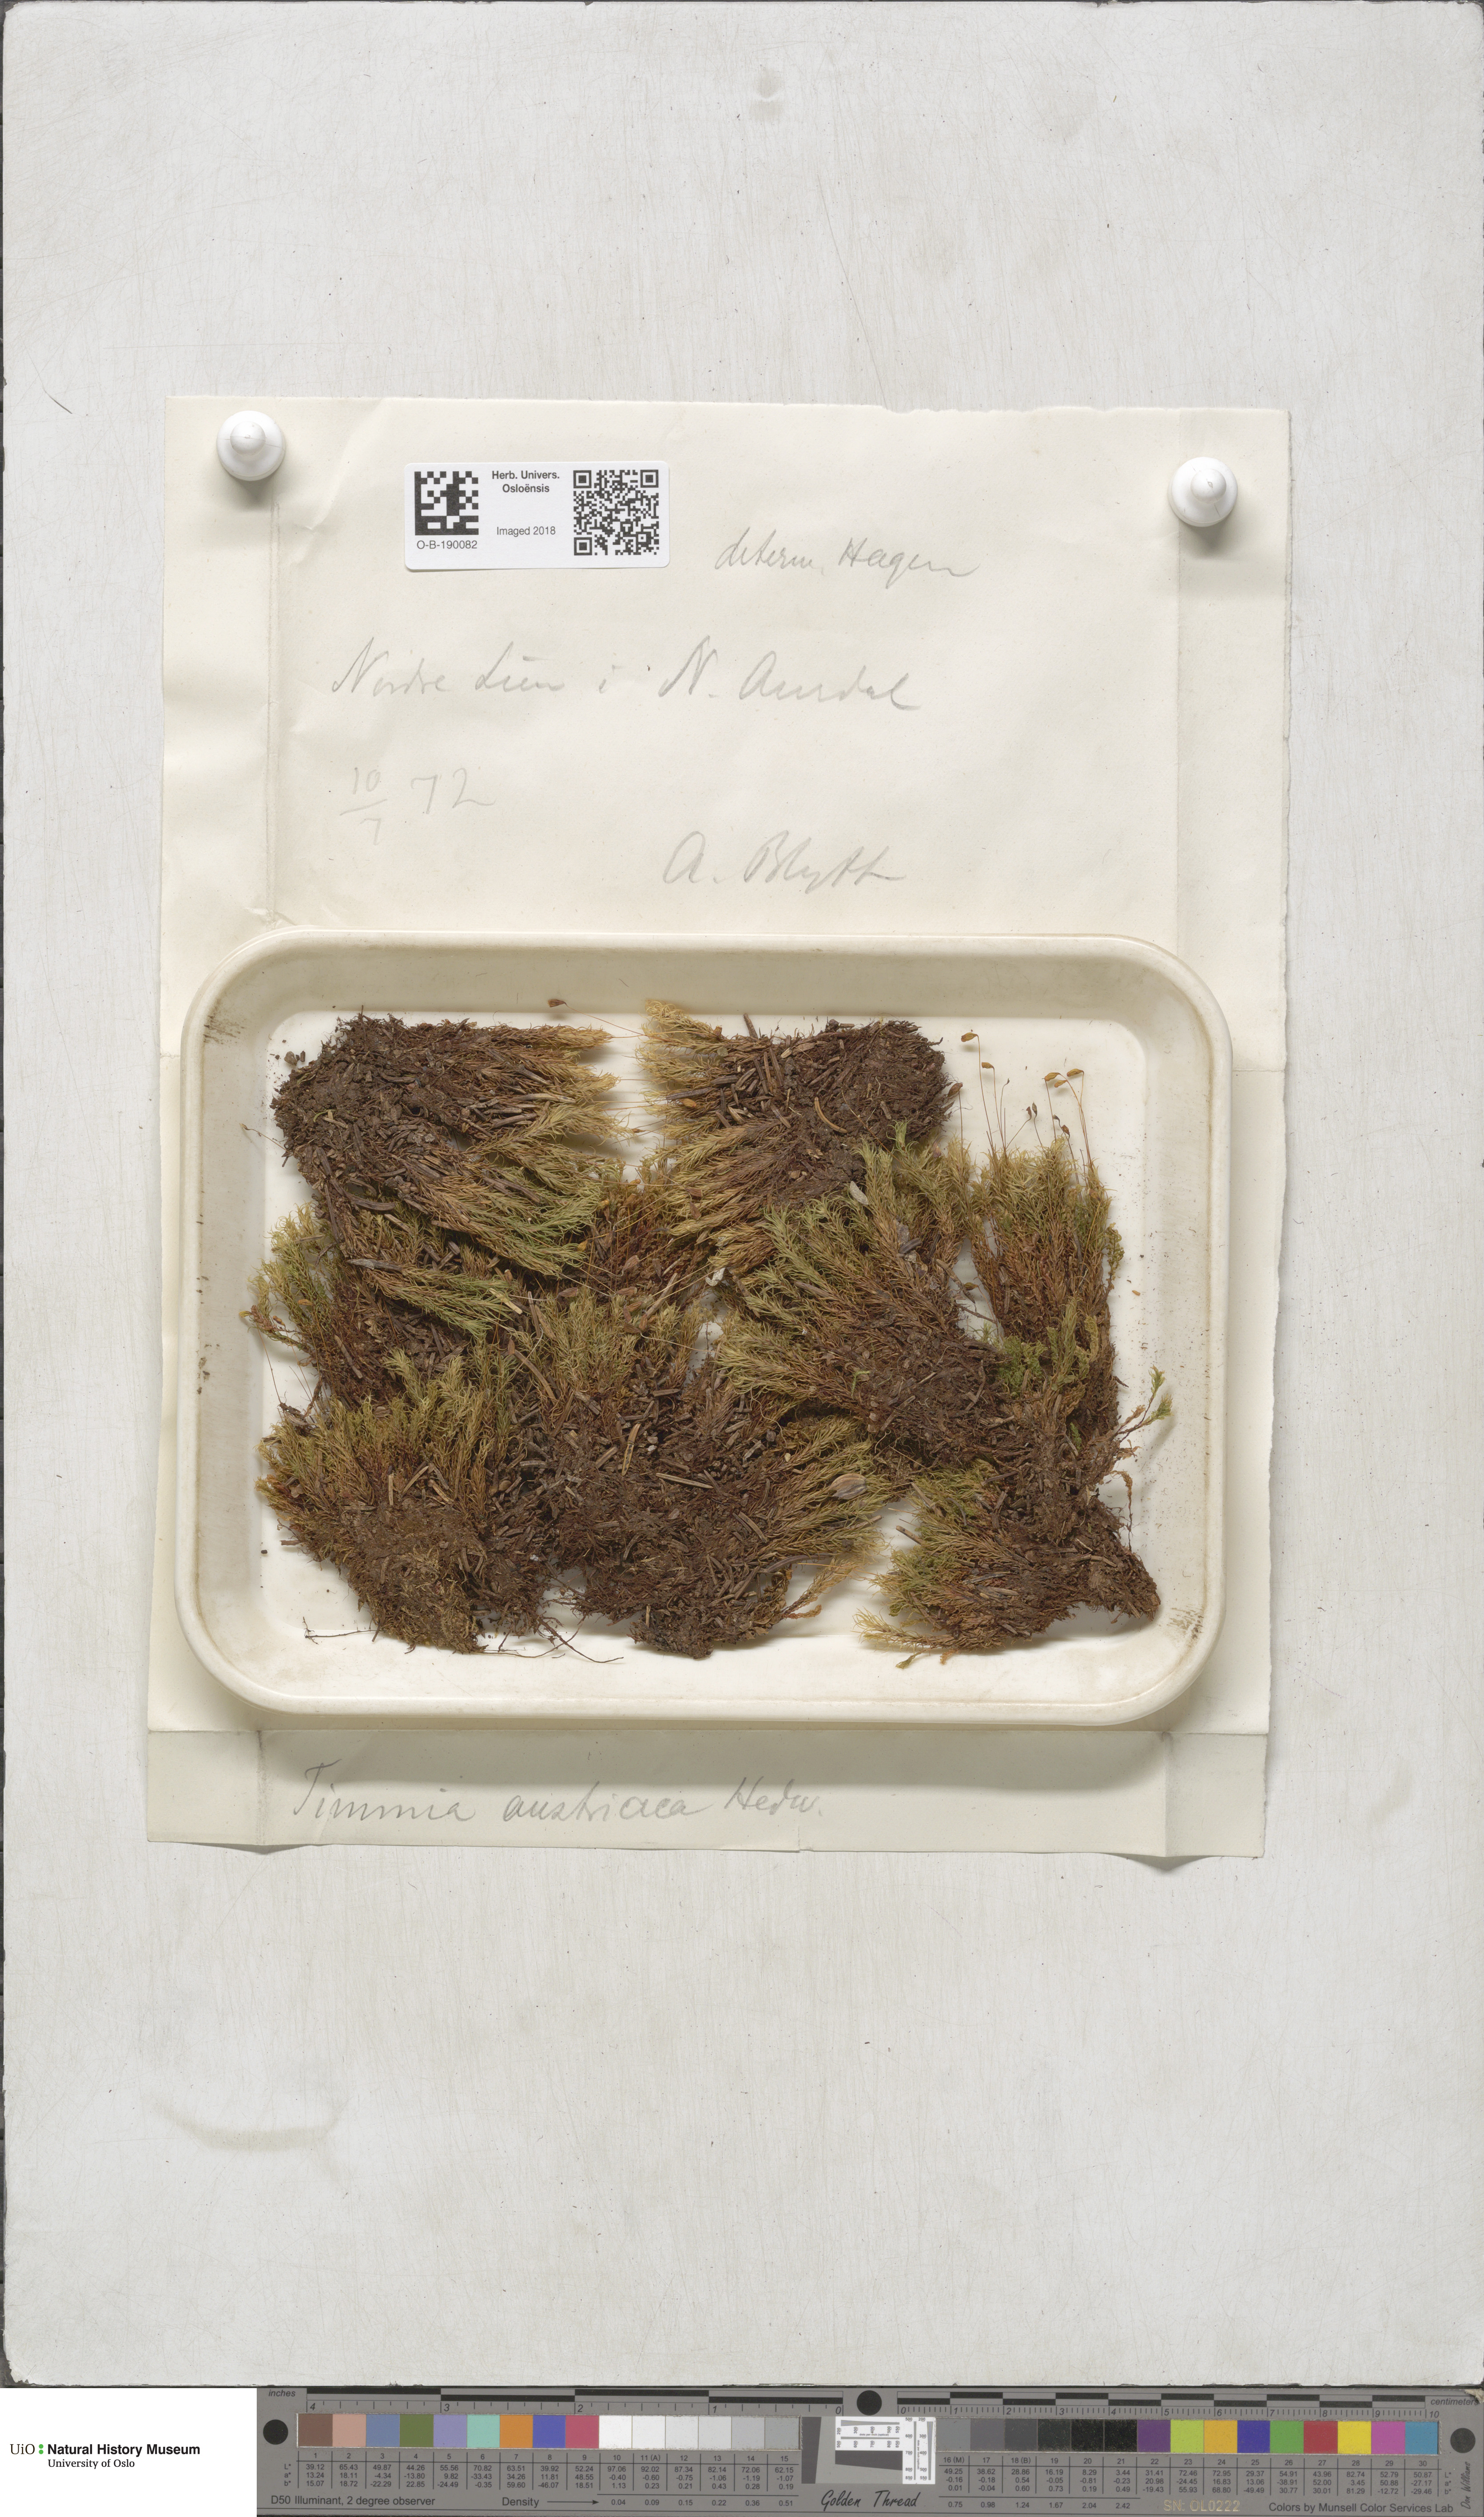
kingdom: Plantae
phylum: Bryophyta
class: Bryopsida
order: Timmiales
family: Timmiaceae
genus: Timmia
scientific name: Timmia austriaca
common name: Austrian timmia
